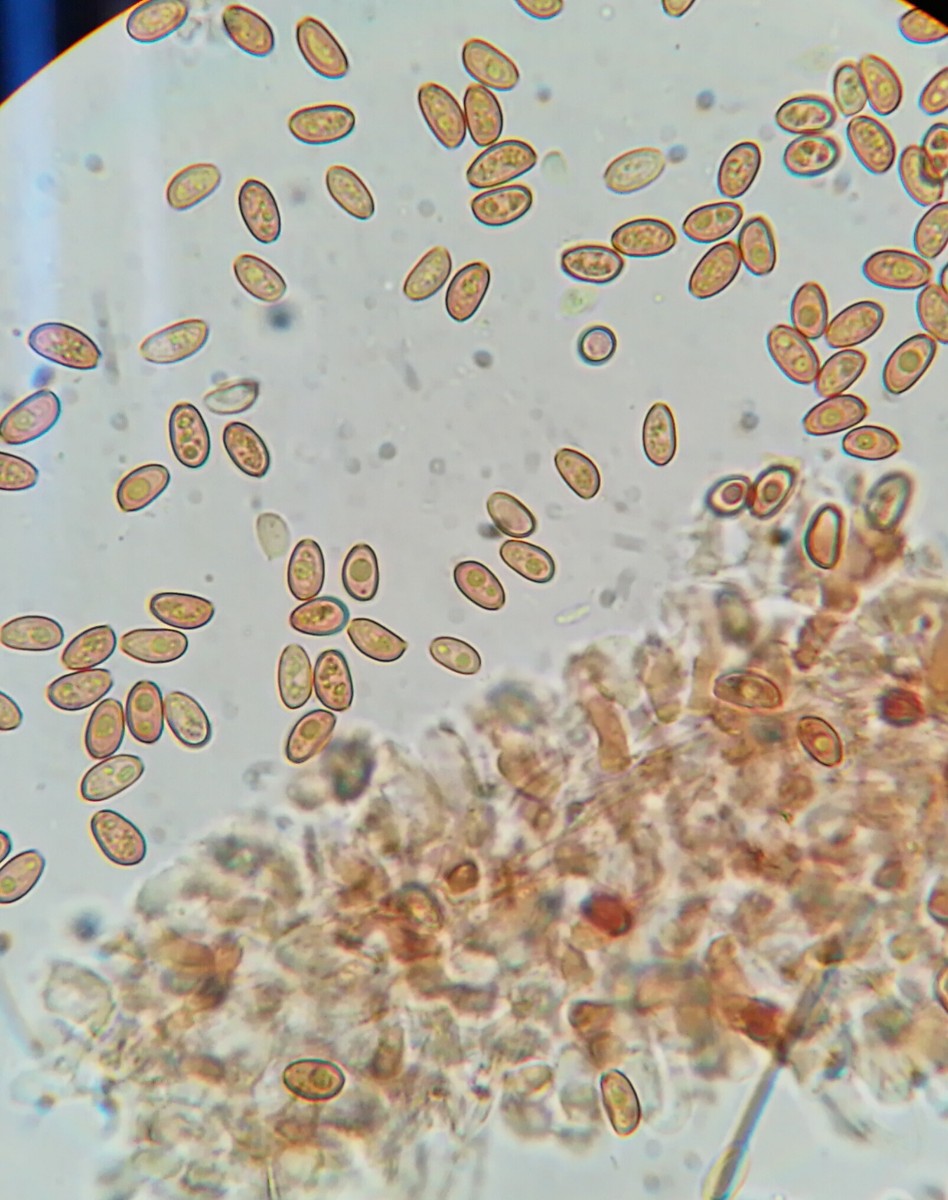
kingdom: Fungi
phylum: Basidiomycota
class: Agaricomycetes
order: Agaricales
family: Bolbitiaceae
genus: Conocybe
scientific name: Conocybe brunnea
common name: slør-dansehat
